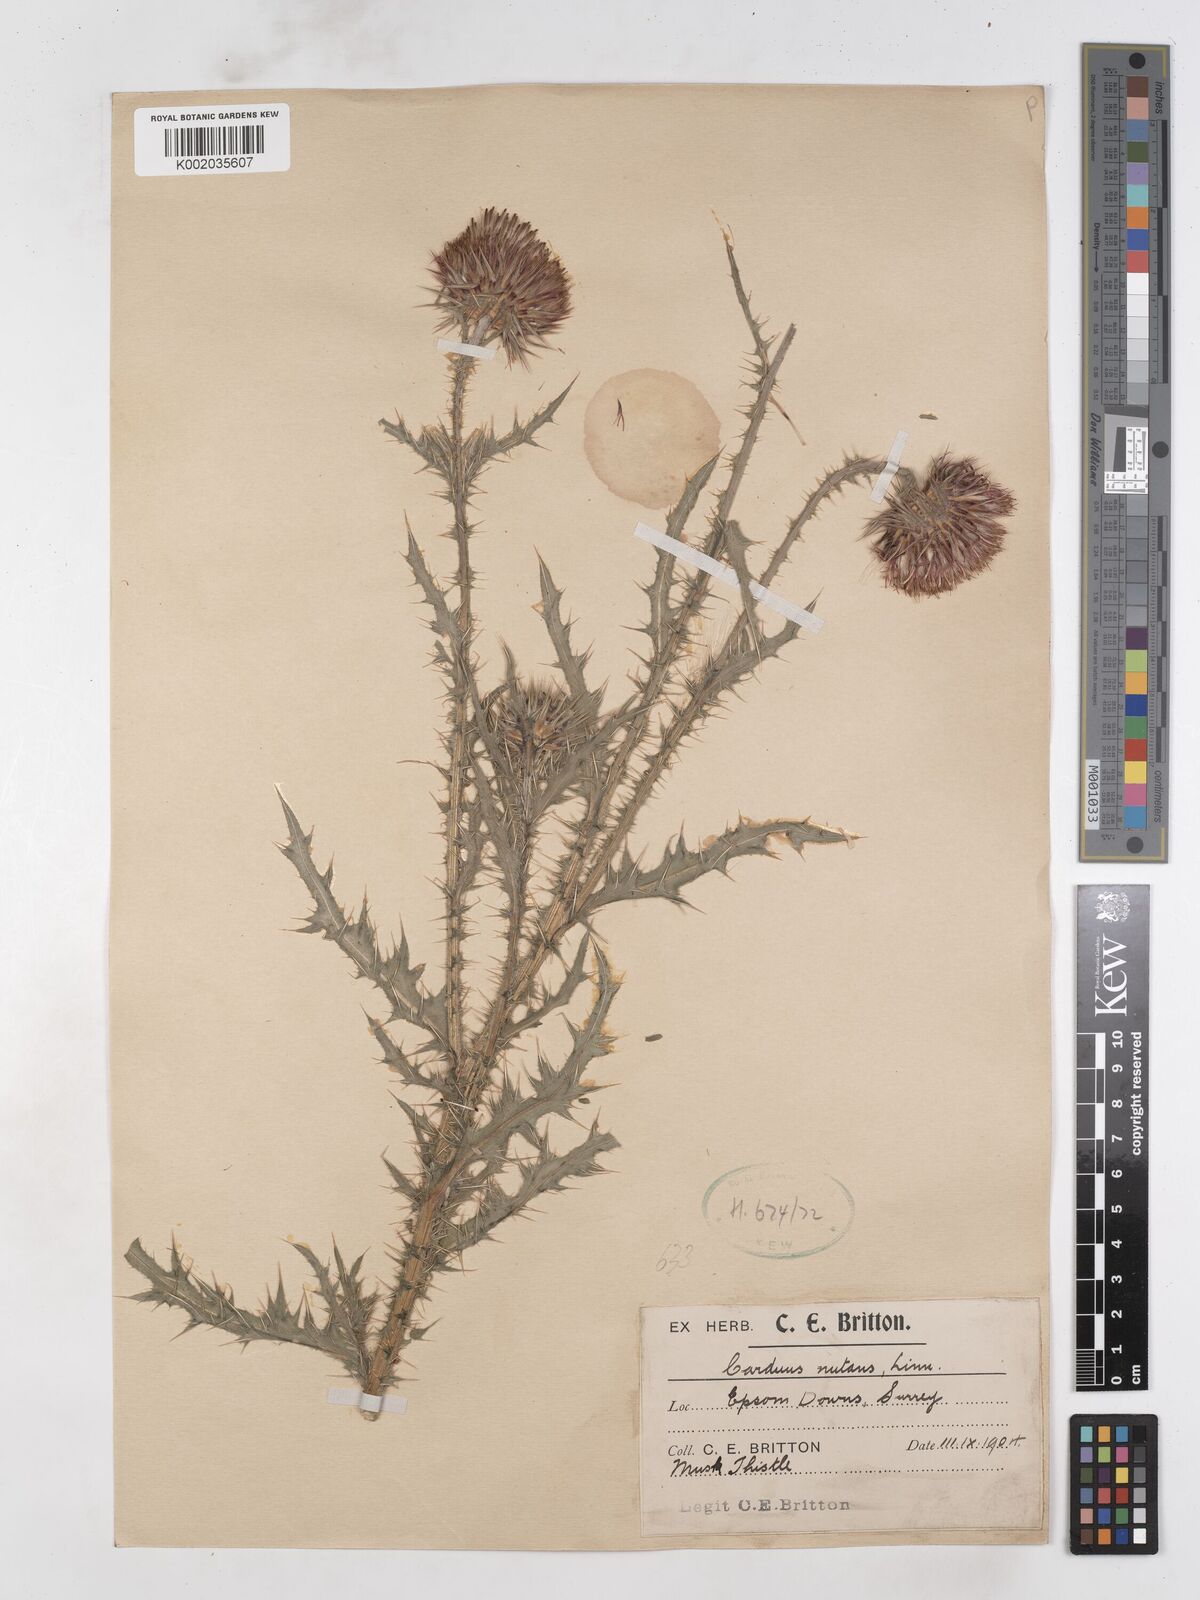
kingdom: Plantae
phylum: Tracheophyta
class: Magnoliopsida
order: Asterales
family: Asteraceae
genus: Carduus
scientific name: Carduus nutans
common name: Musk thistle
